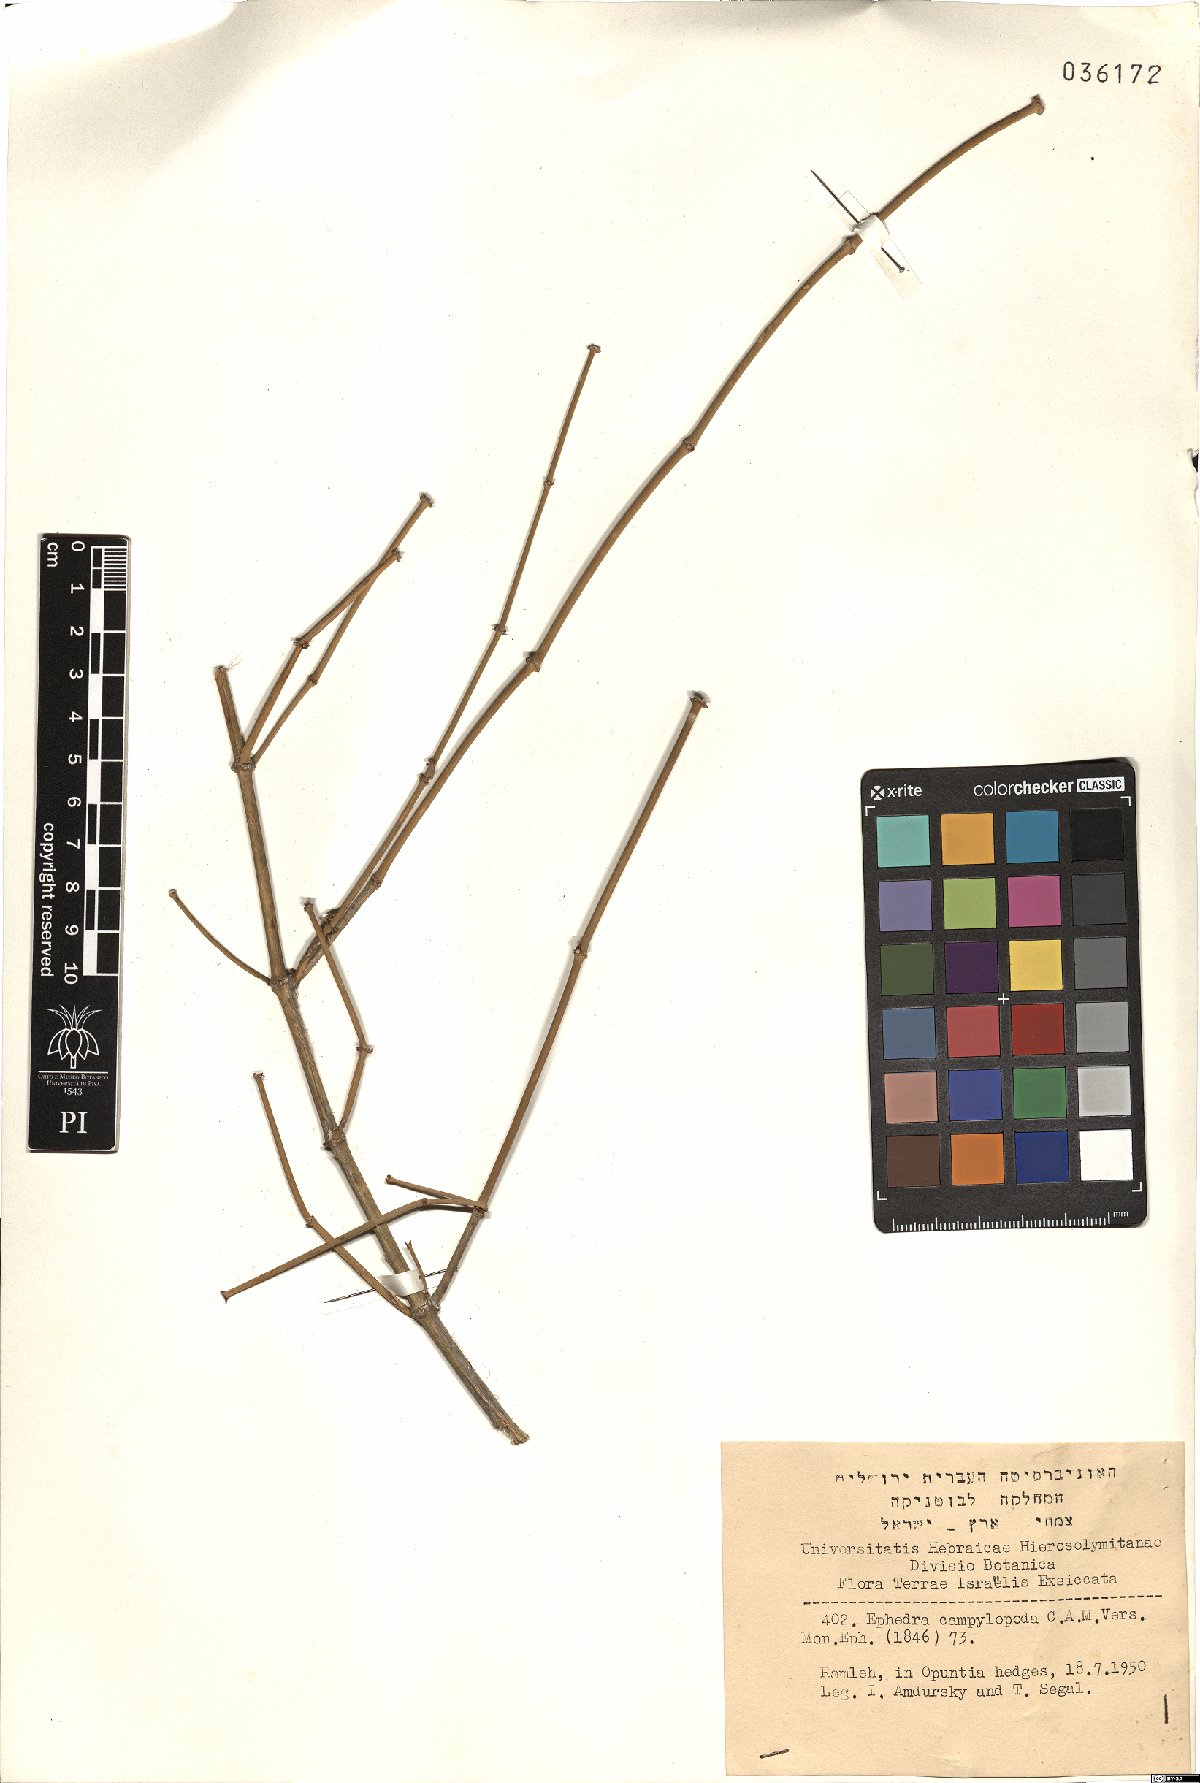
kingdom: Plantae
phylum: Tracheophyta
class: Gnetopsida
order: Ephedrales
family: Ephedraceae
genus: Ephedra
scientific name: Ephedra foeminea
